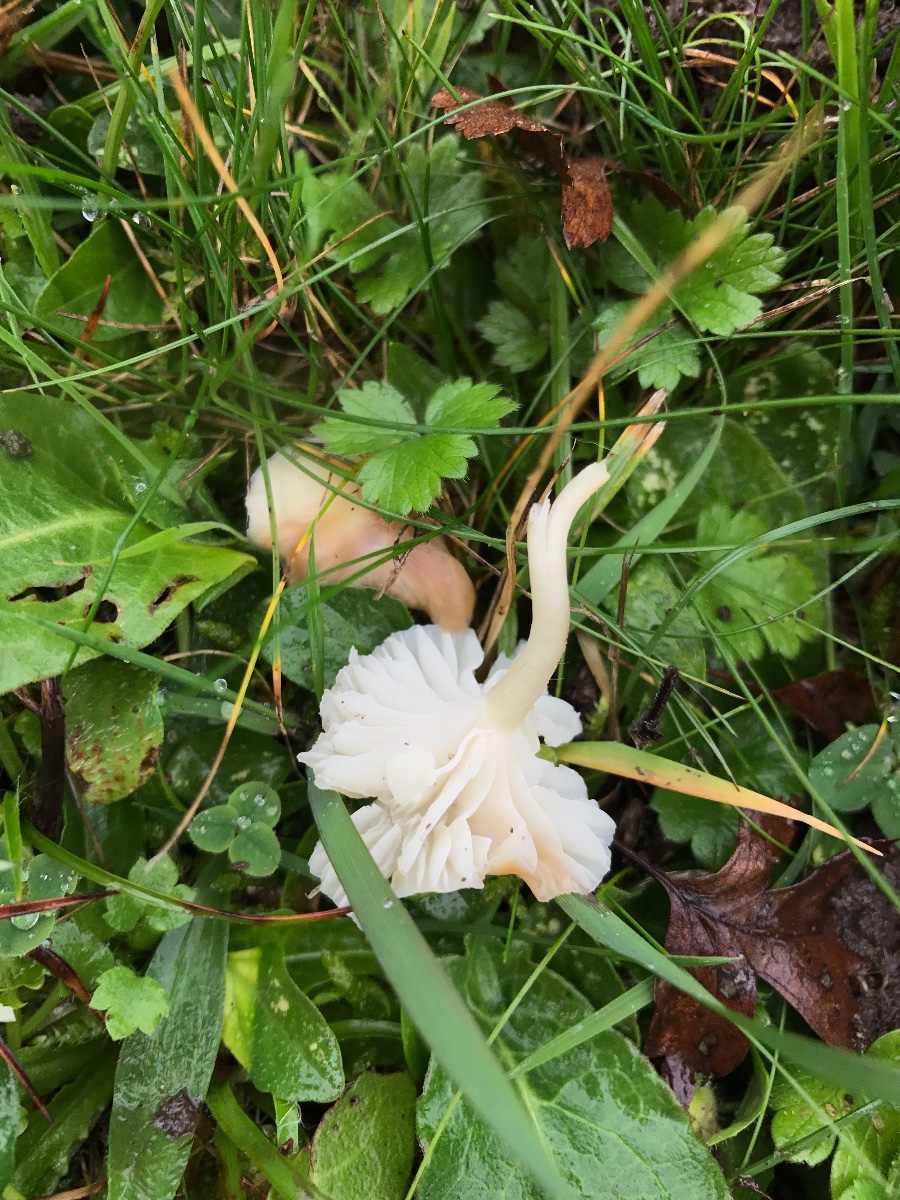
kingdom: Fungi
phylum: Basidiomycota
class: Agaricomycetes
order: Agaricales
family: Hygrophoraceae
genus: Cuphophyllus
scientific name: Cuphophyllus virgineus
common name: snehvid vokshat
